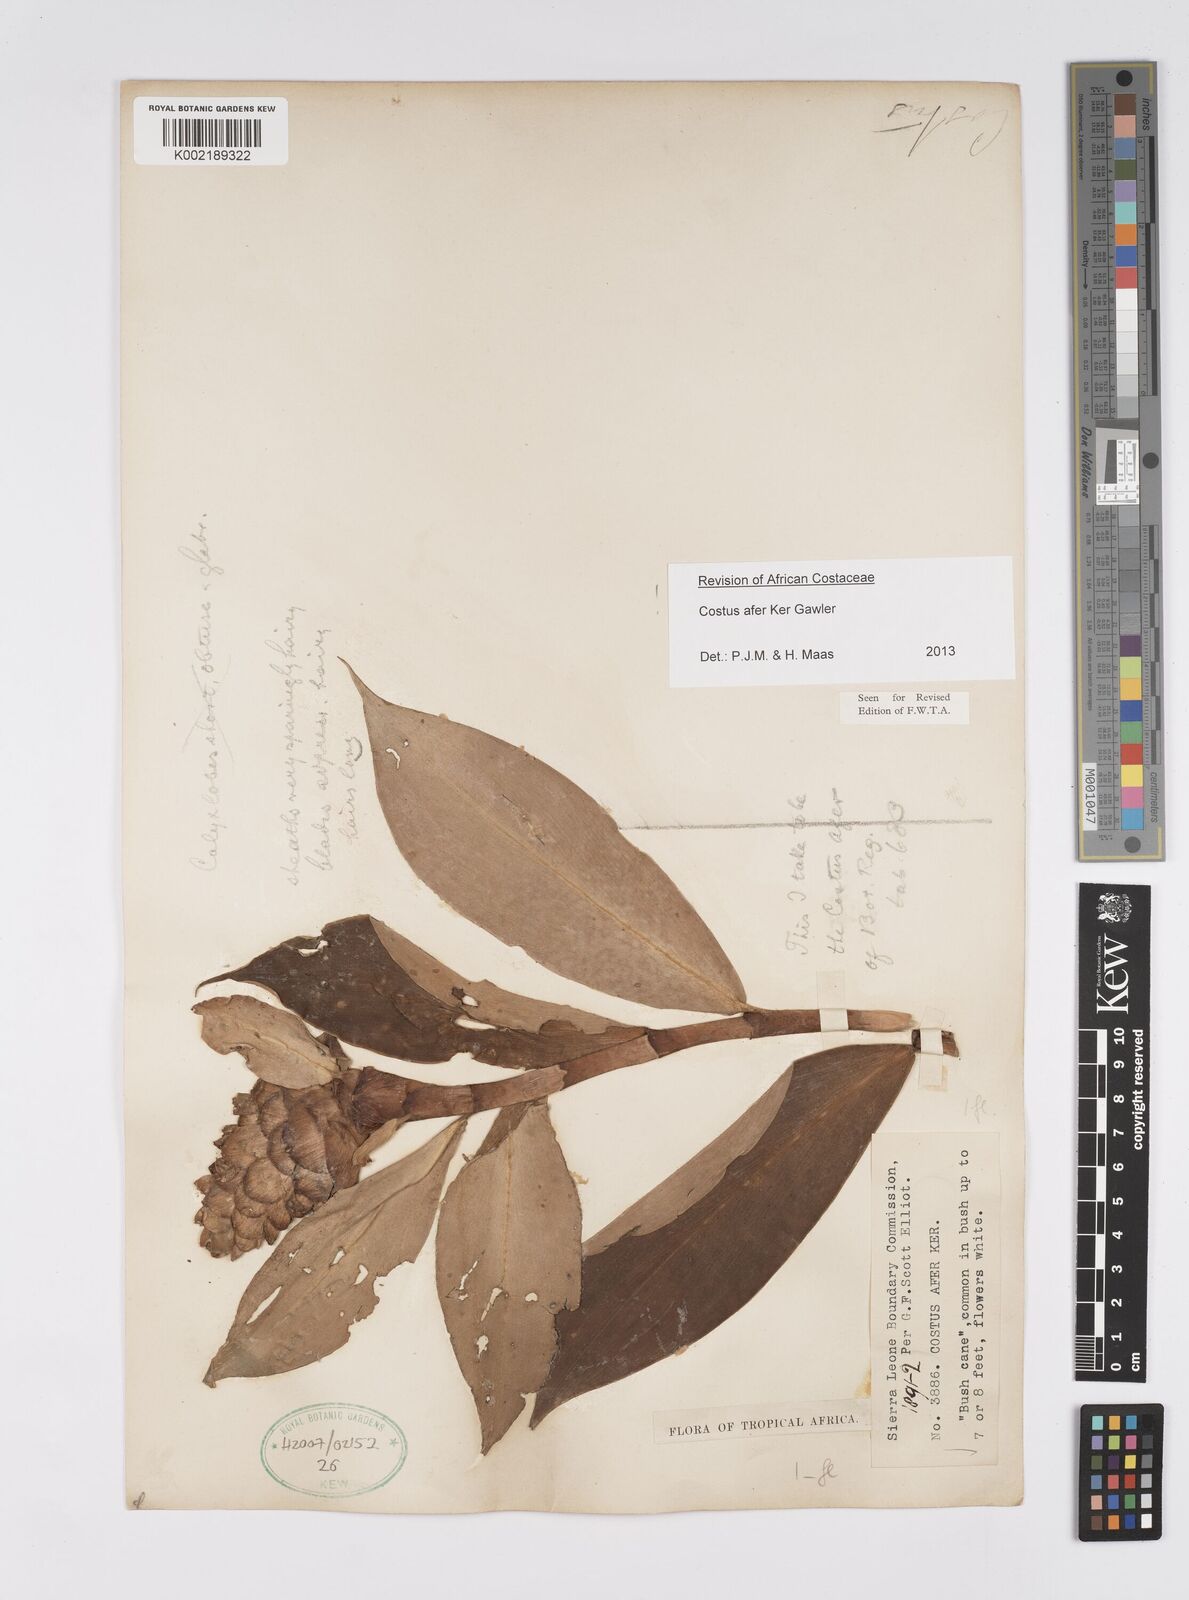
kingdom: Plantae
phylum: Tracheophyta
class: Liliopsida
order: Zingiberales
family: Costaceae
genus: Costus
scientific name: Costus afer
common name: Spiral-ginger
